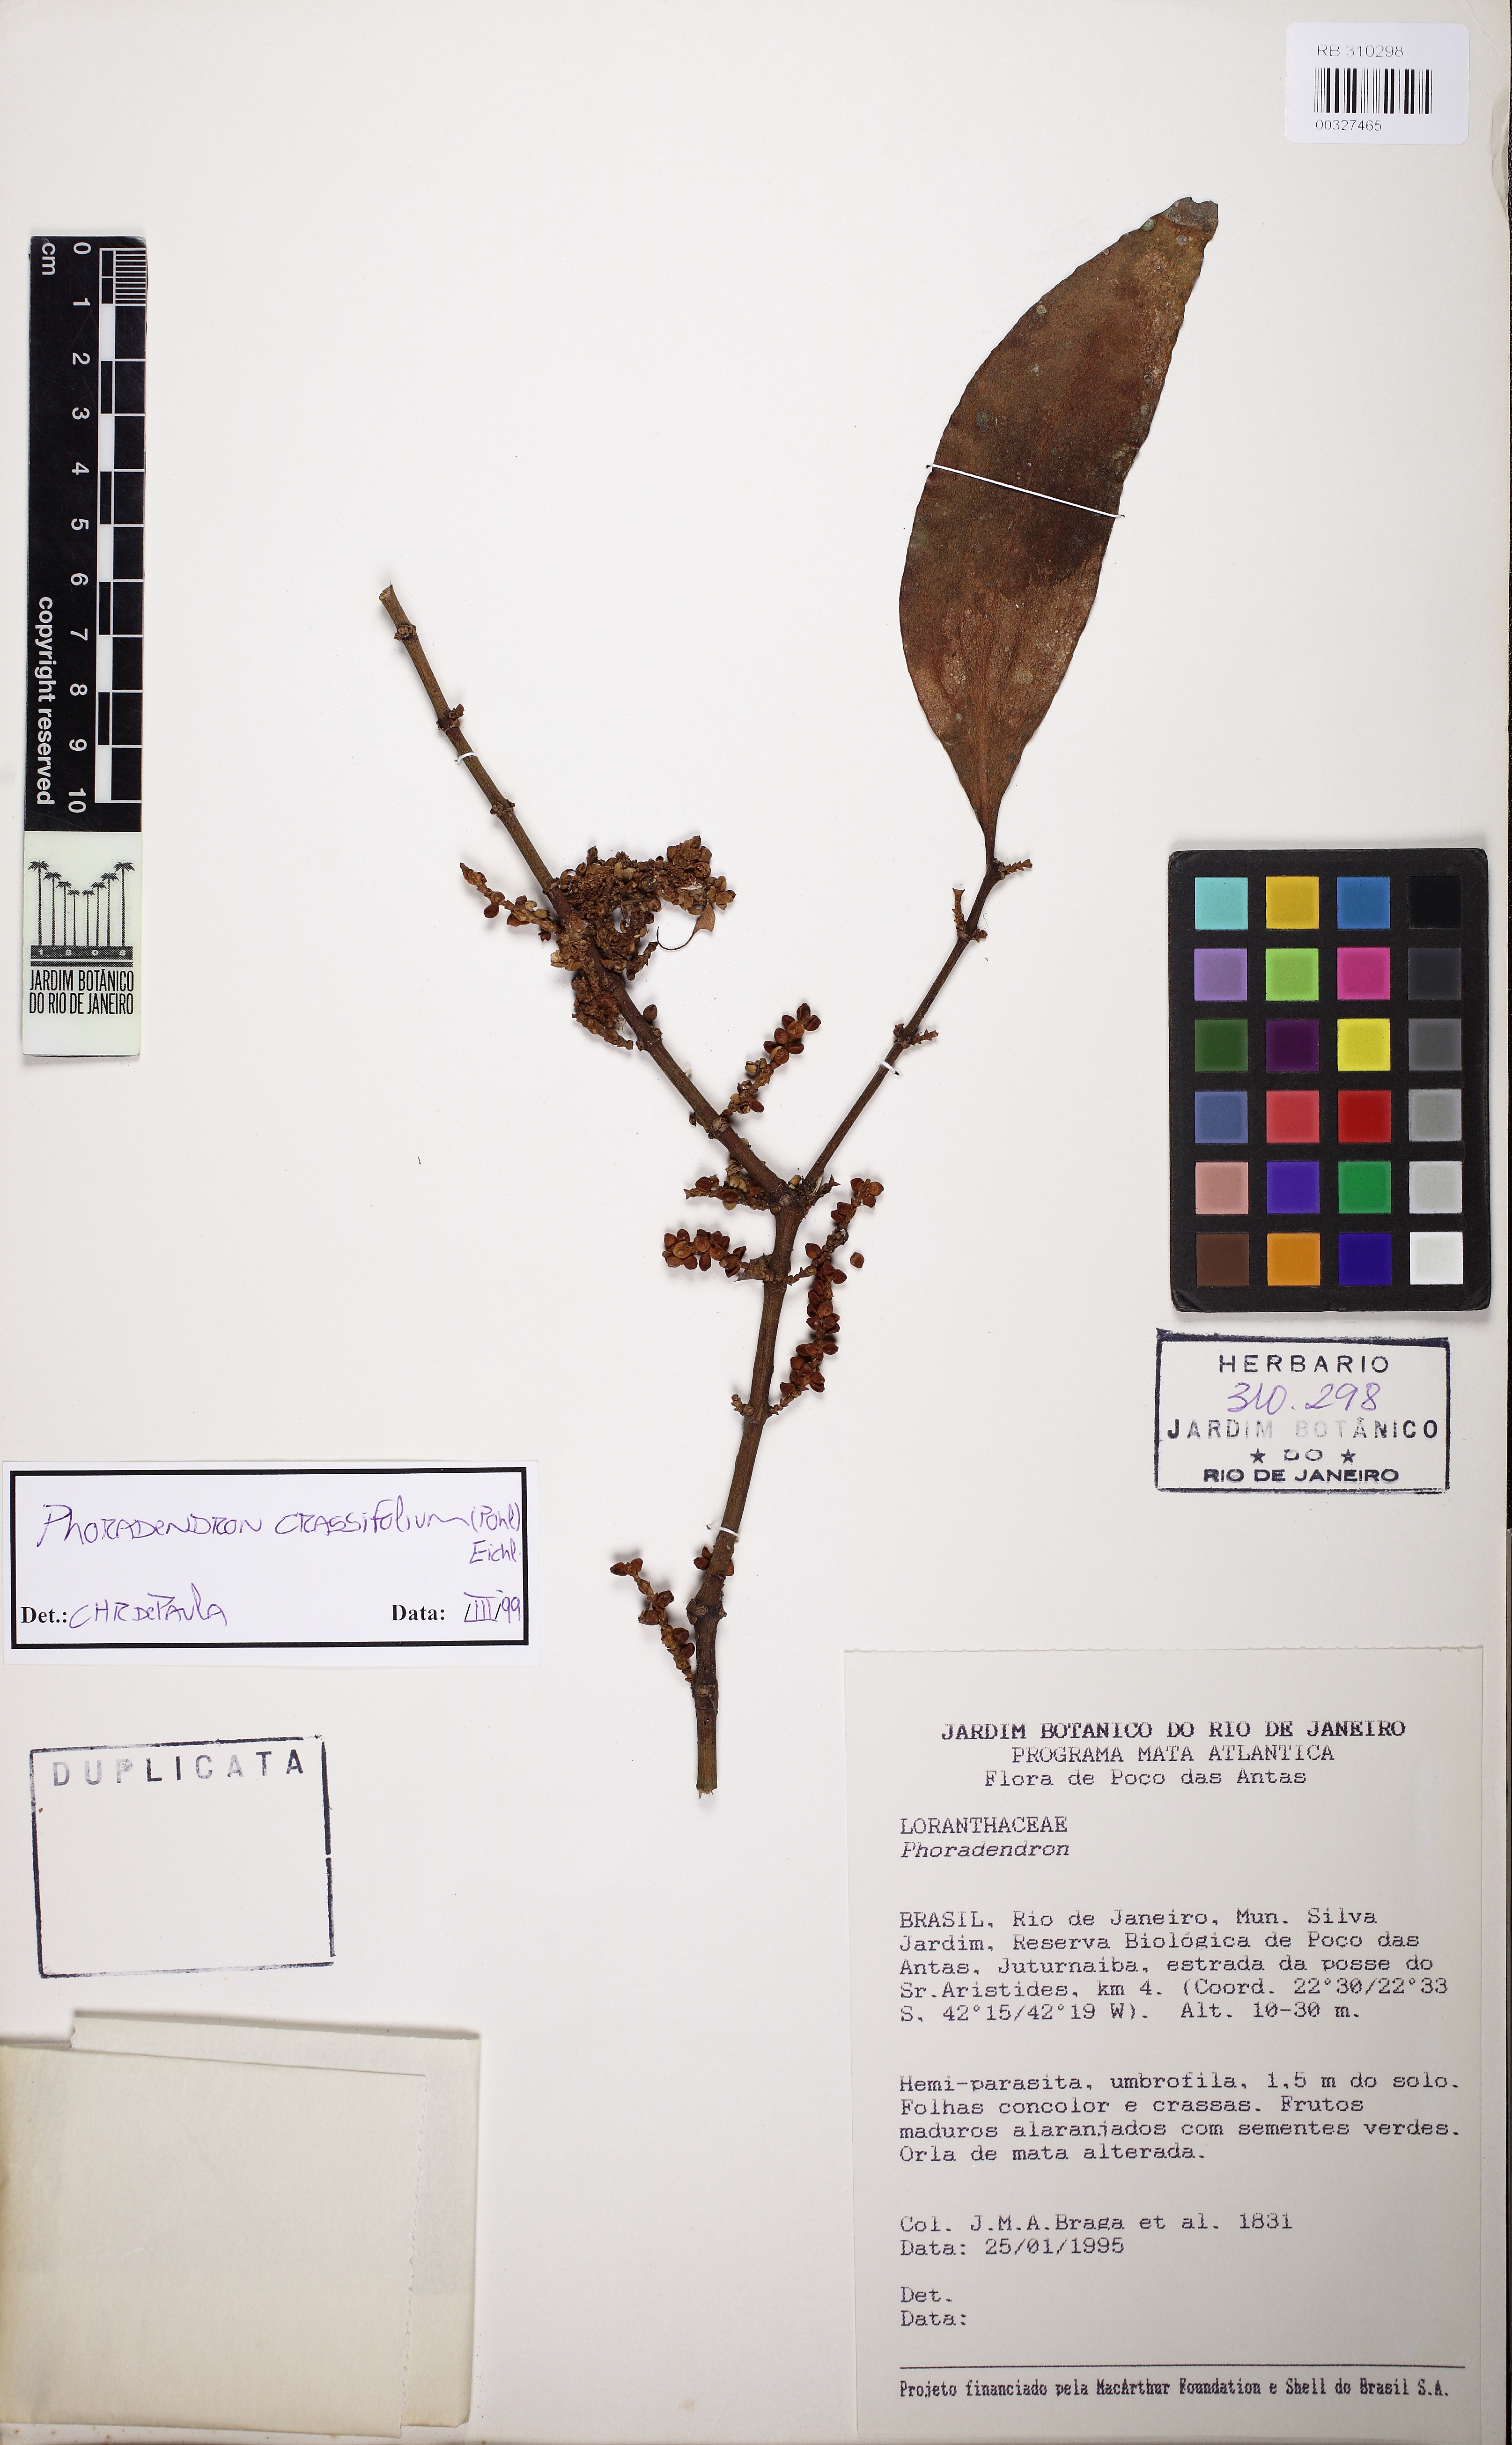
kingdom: Plantae
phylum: Tracheophyta
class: Magnoliopsida
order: Santalales
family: Viscaceae
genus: Phoradendron
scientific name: Phoradendron crassifolium
